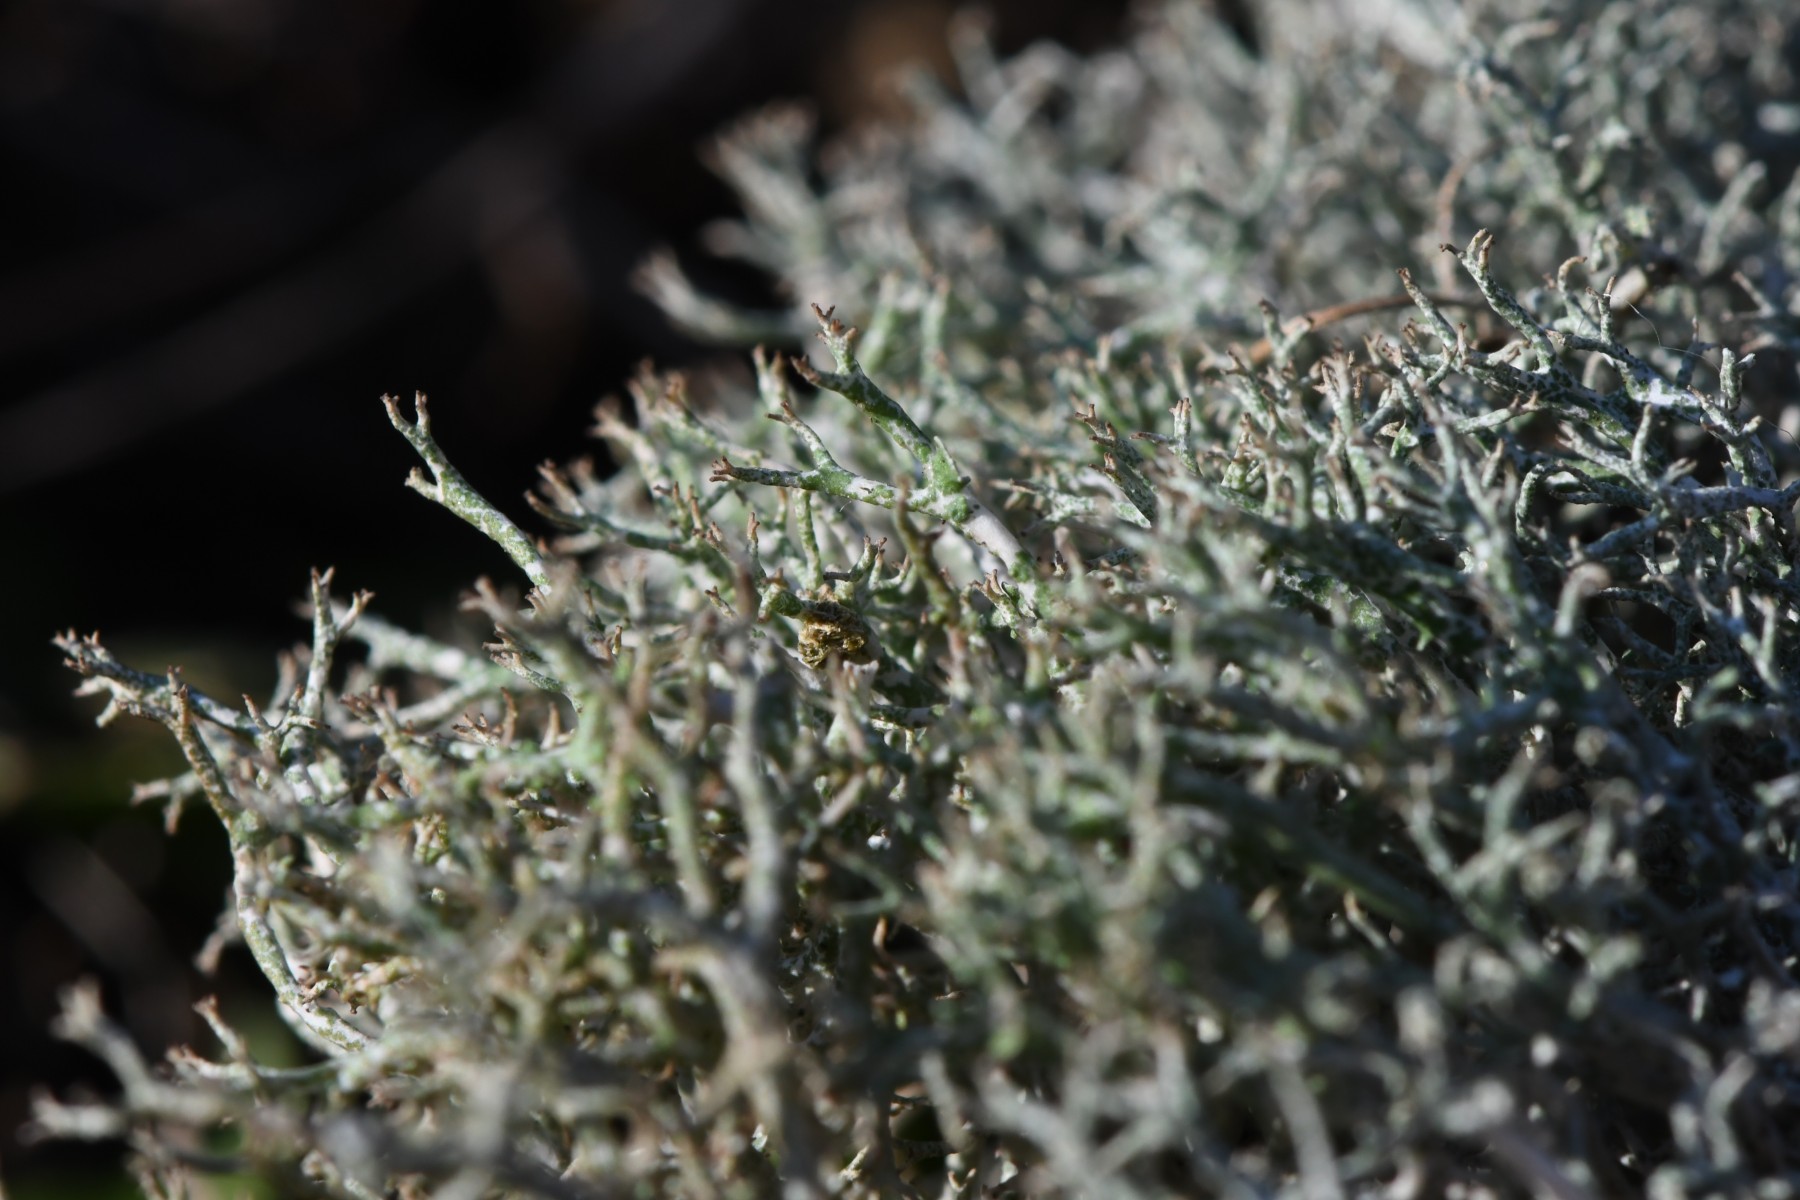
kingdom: Fungi
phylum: Ascomycota
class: Lecanoromycetes
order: Lecanorales
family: Cladoniaceae
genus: Cladonia
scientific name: Cladonia rangiformis
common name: spættet bægerlav
